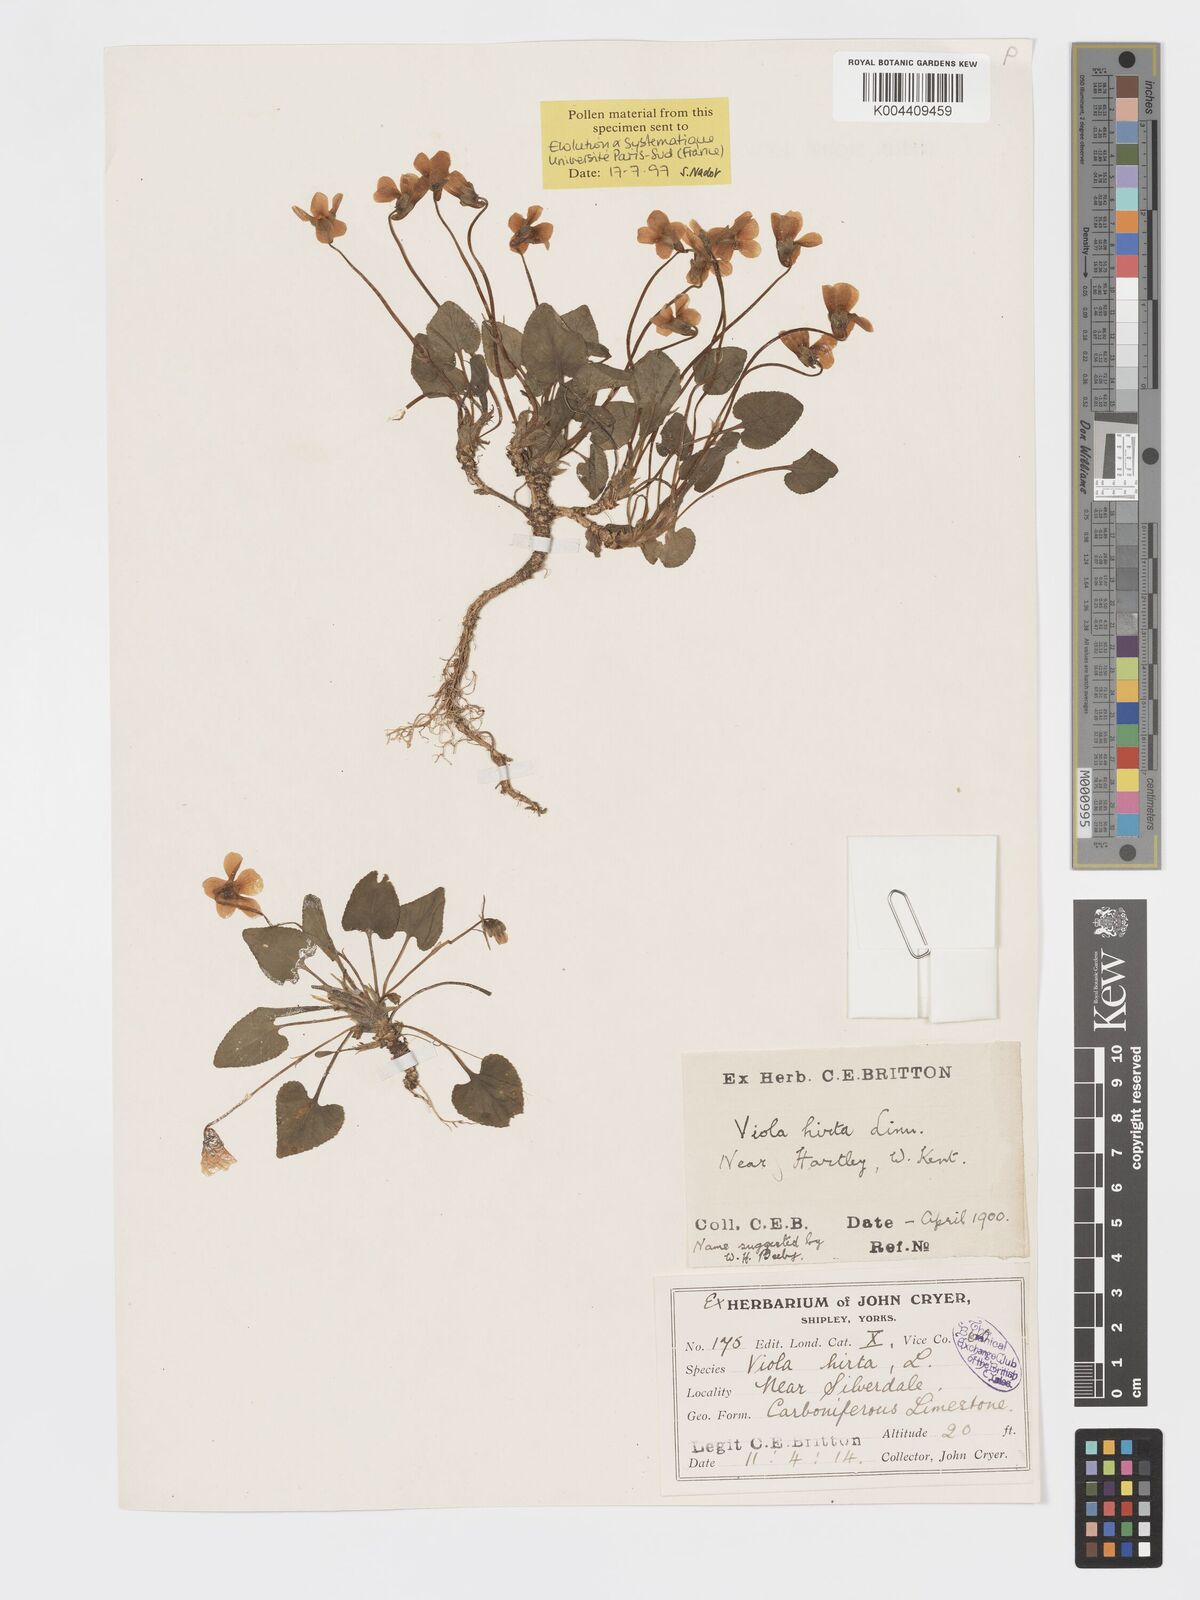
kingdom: Plantae
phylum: Tracheophyta
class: Magnoliopsida
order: Malpighiales
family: Violaceae
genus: Viola
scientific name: Viola
